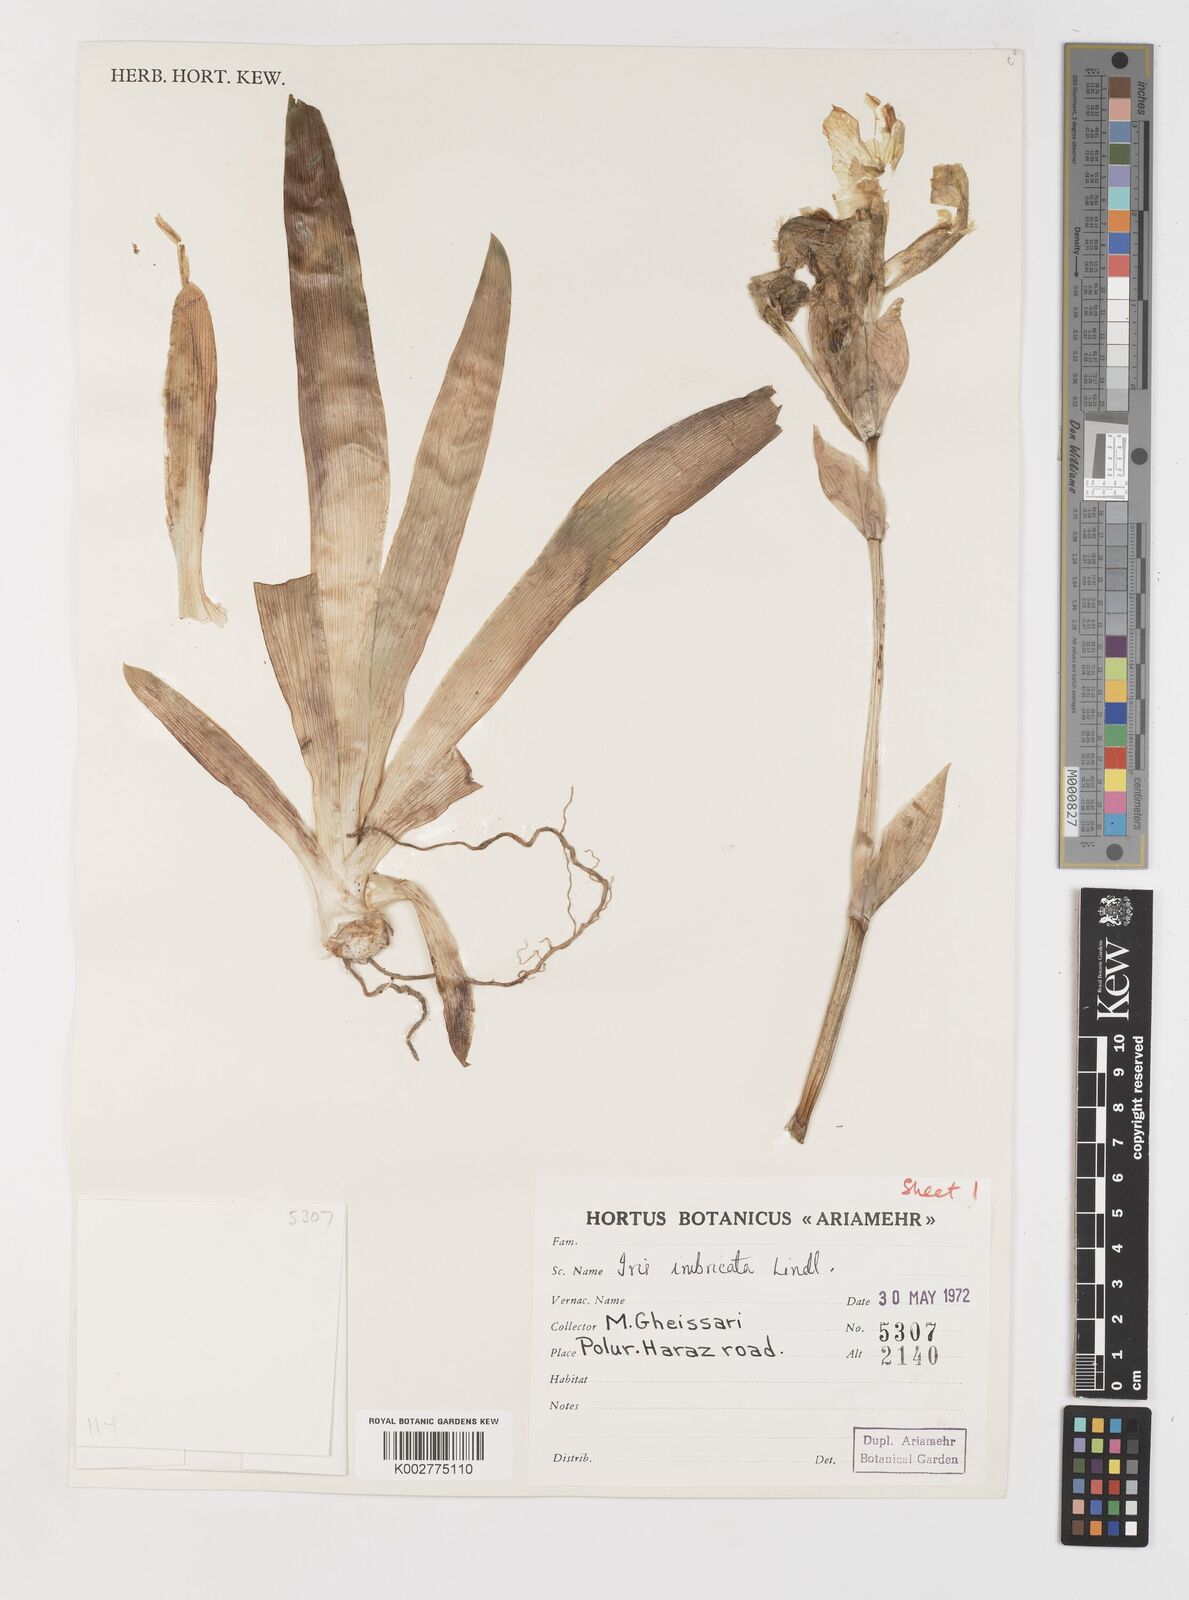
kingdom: Plantae
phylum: Tracheophyta
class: Liliopsida
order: Asparagales
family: Iridaceae
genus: Iris
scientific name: Iris imbricata
